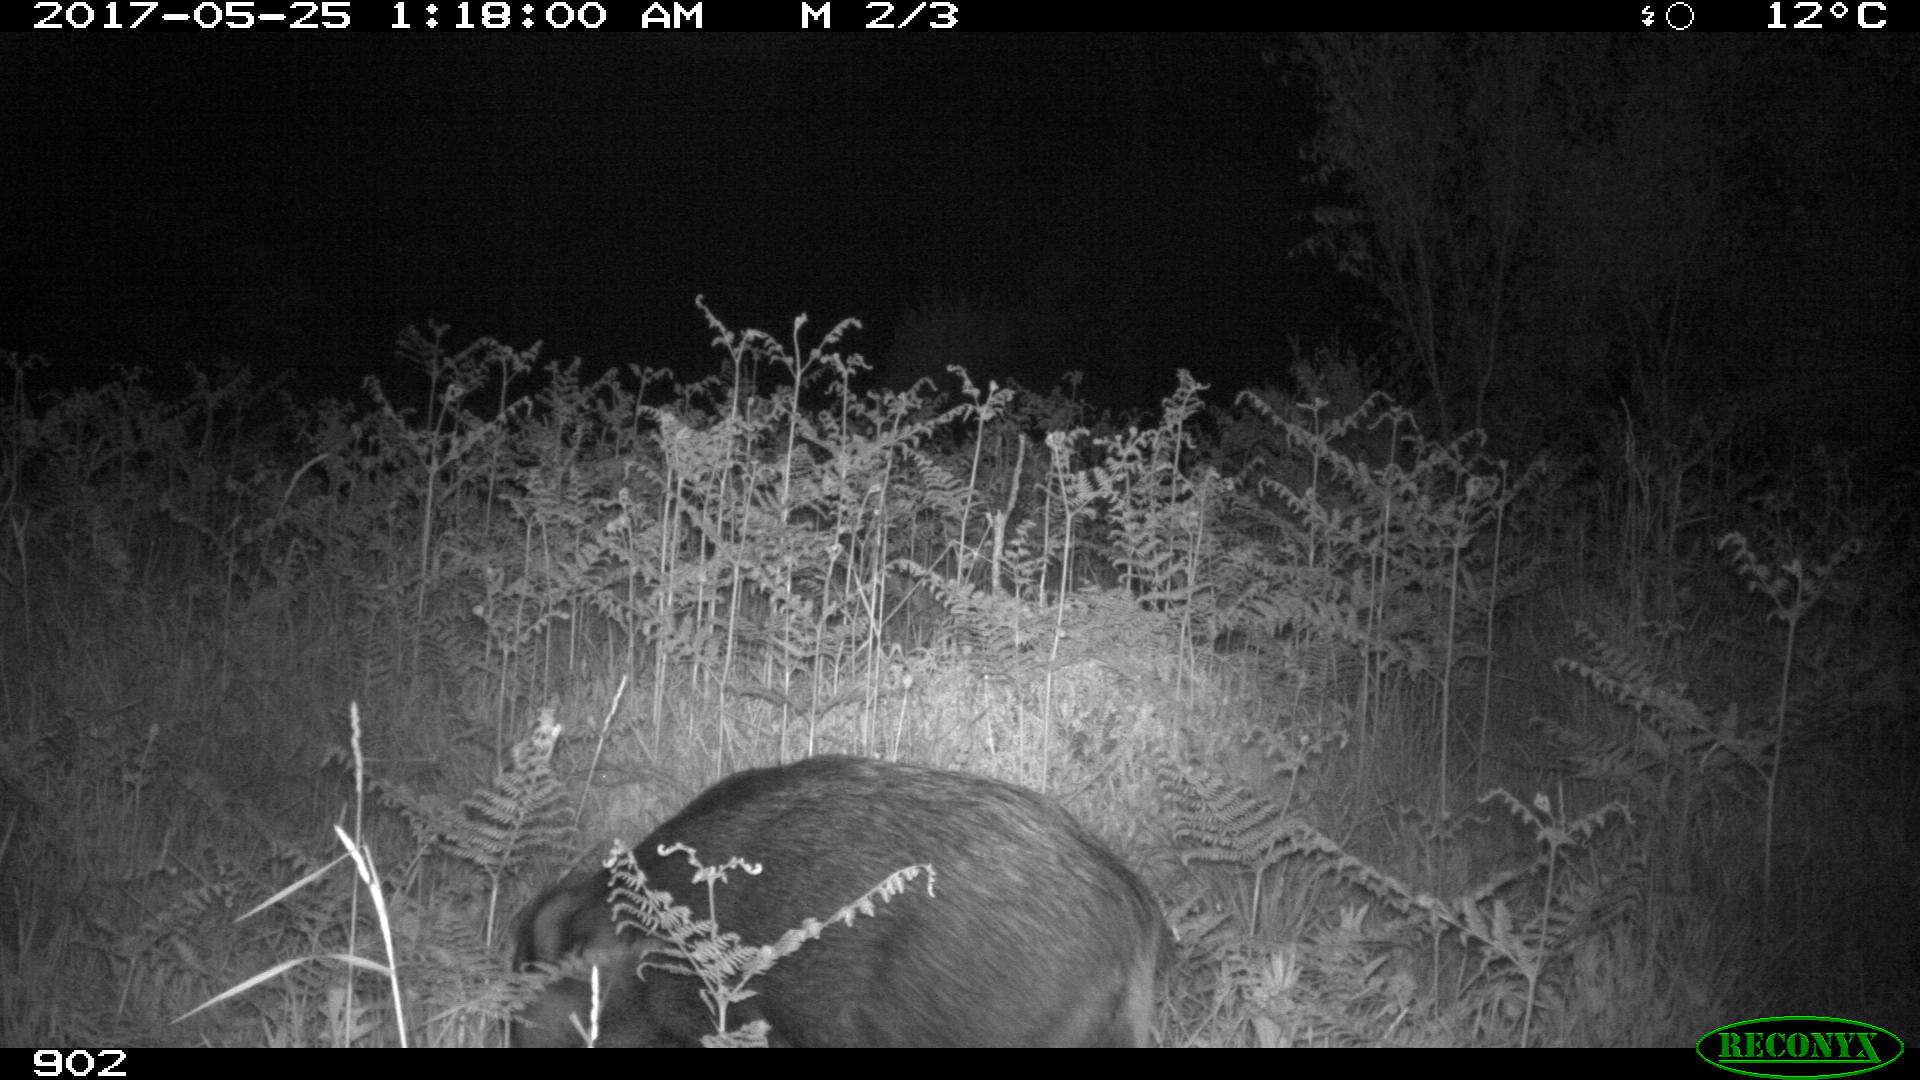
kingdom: Animalia
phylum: Chordata
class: Mammalia
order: Artiodactyla
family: Suidae
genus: Sus
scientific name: Sus scrofa
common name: Wild boar
